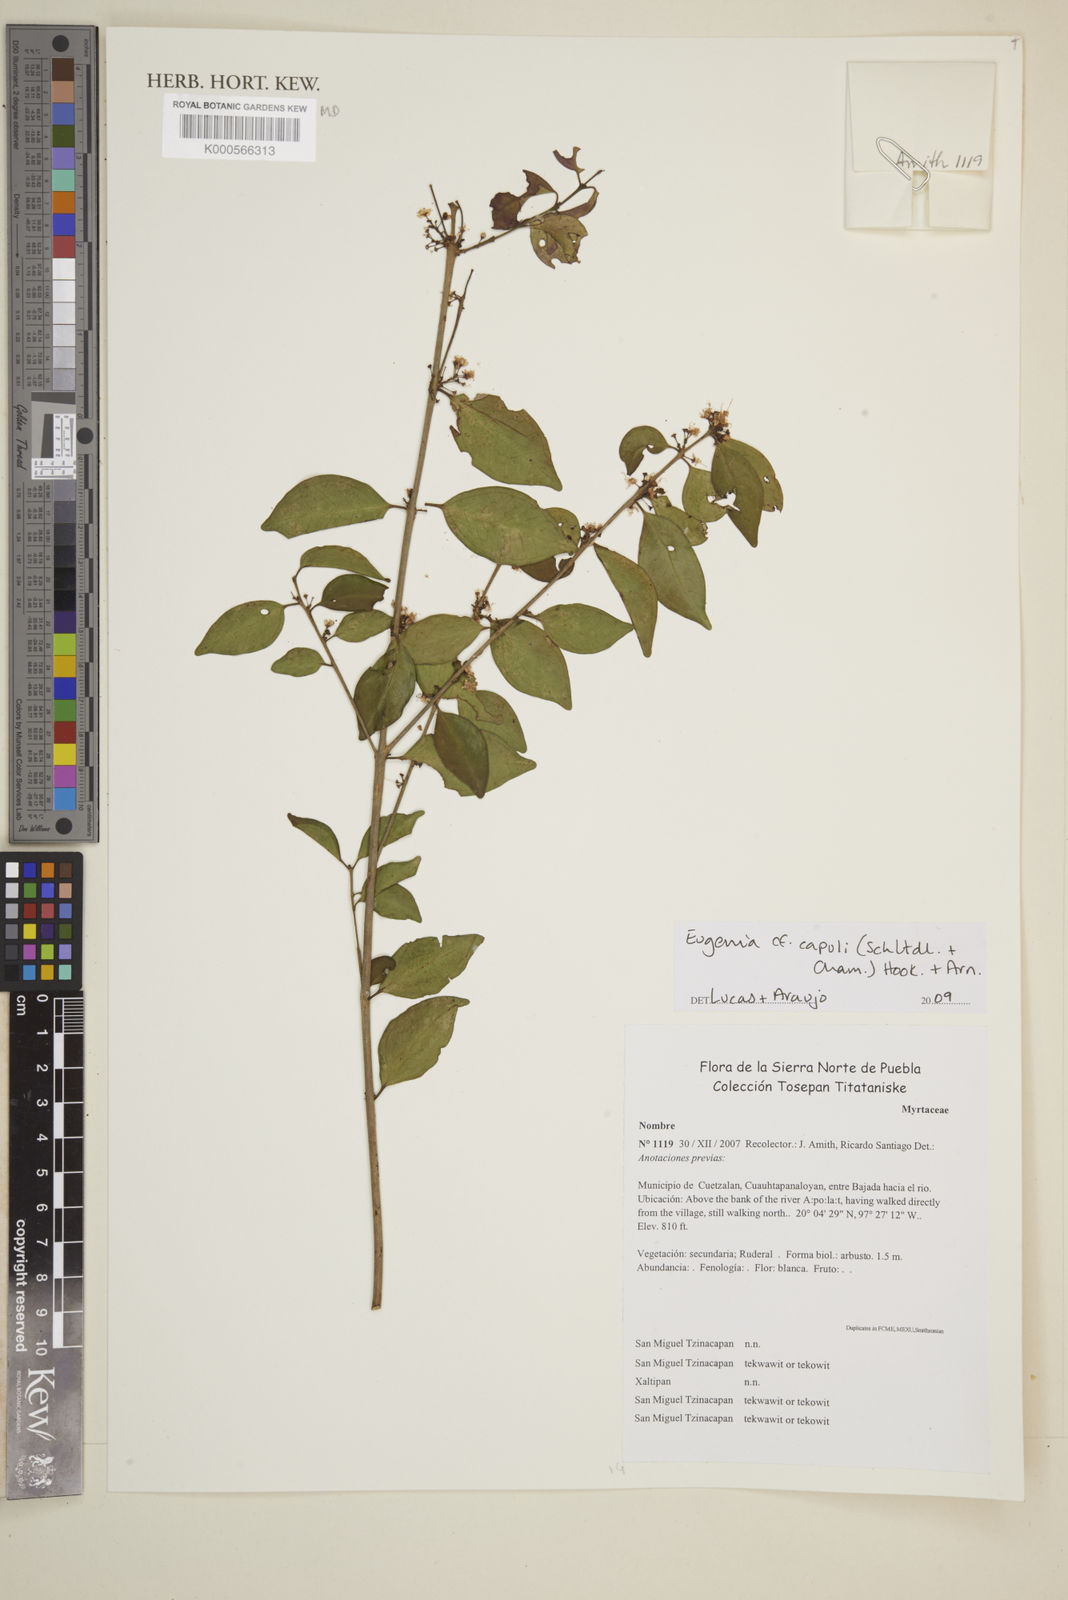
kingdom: Plantae
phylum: Tracheophyta
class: Magnoliopsida
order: Myrtales
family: Myrtaceae
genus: Eugenia
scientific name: Eugenia capuli
